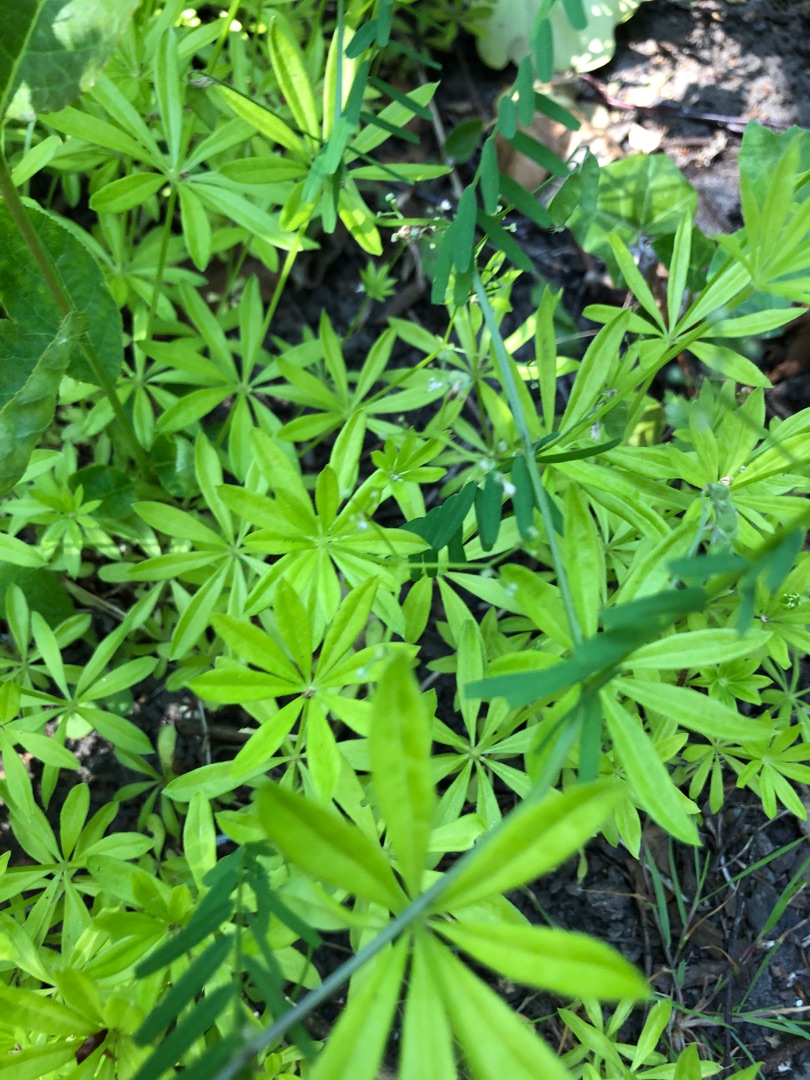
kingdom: Plantae
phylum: Tracheophyta
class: Magnoliopsida
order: Gentianales
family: Rubiaceae
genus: Galium
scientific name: Galium odoratum
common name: Skovmærke
